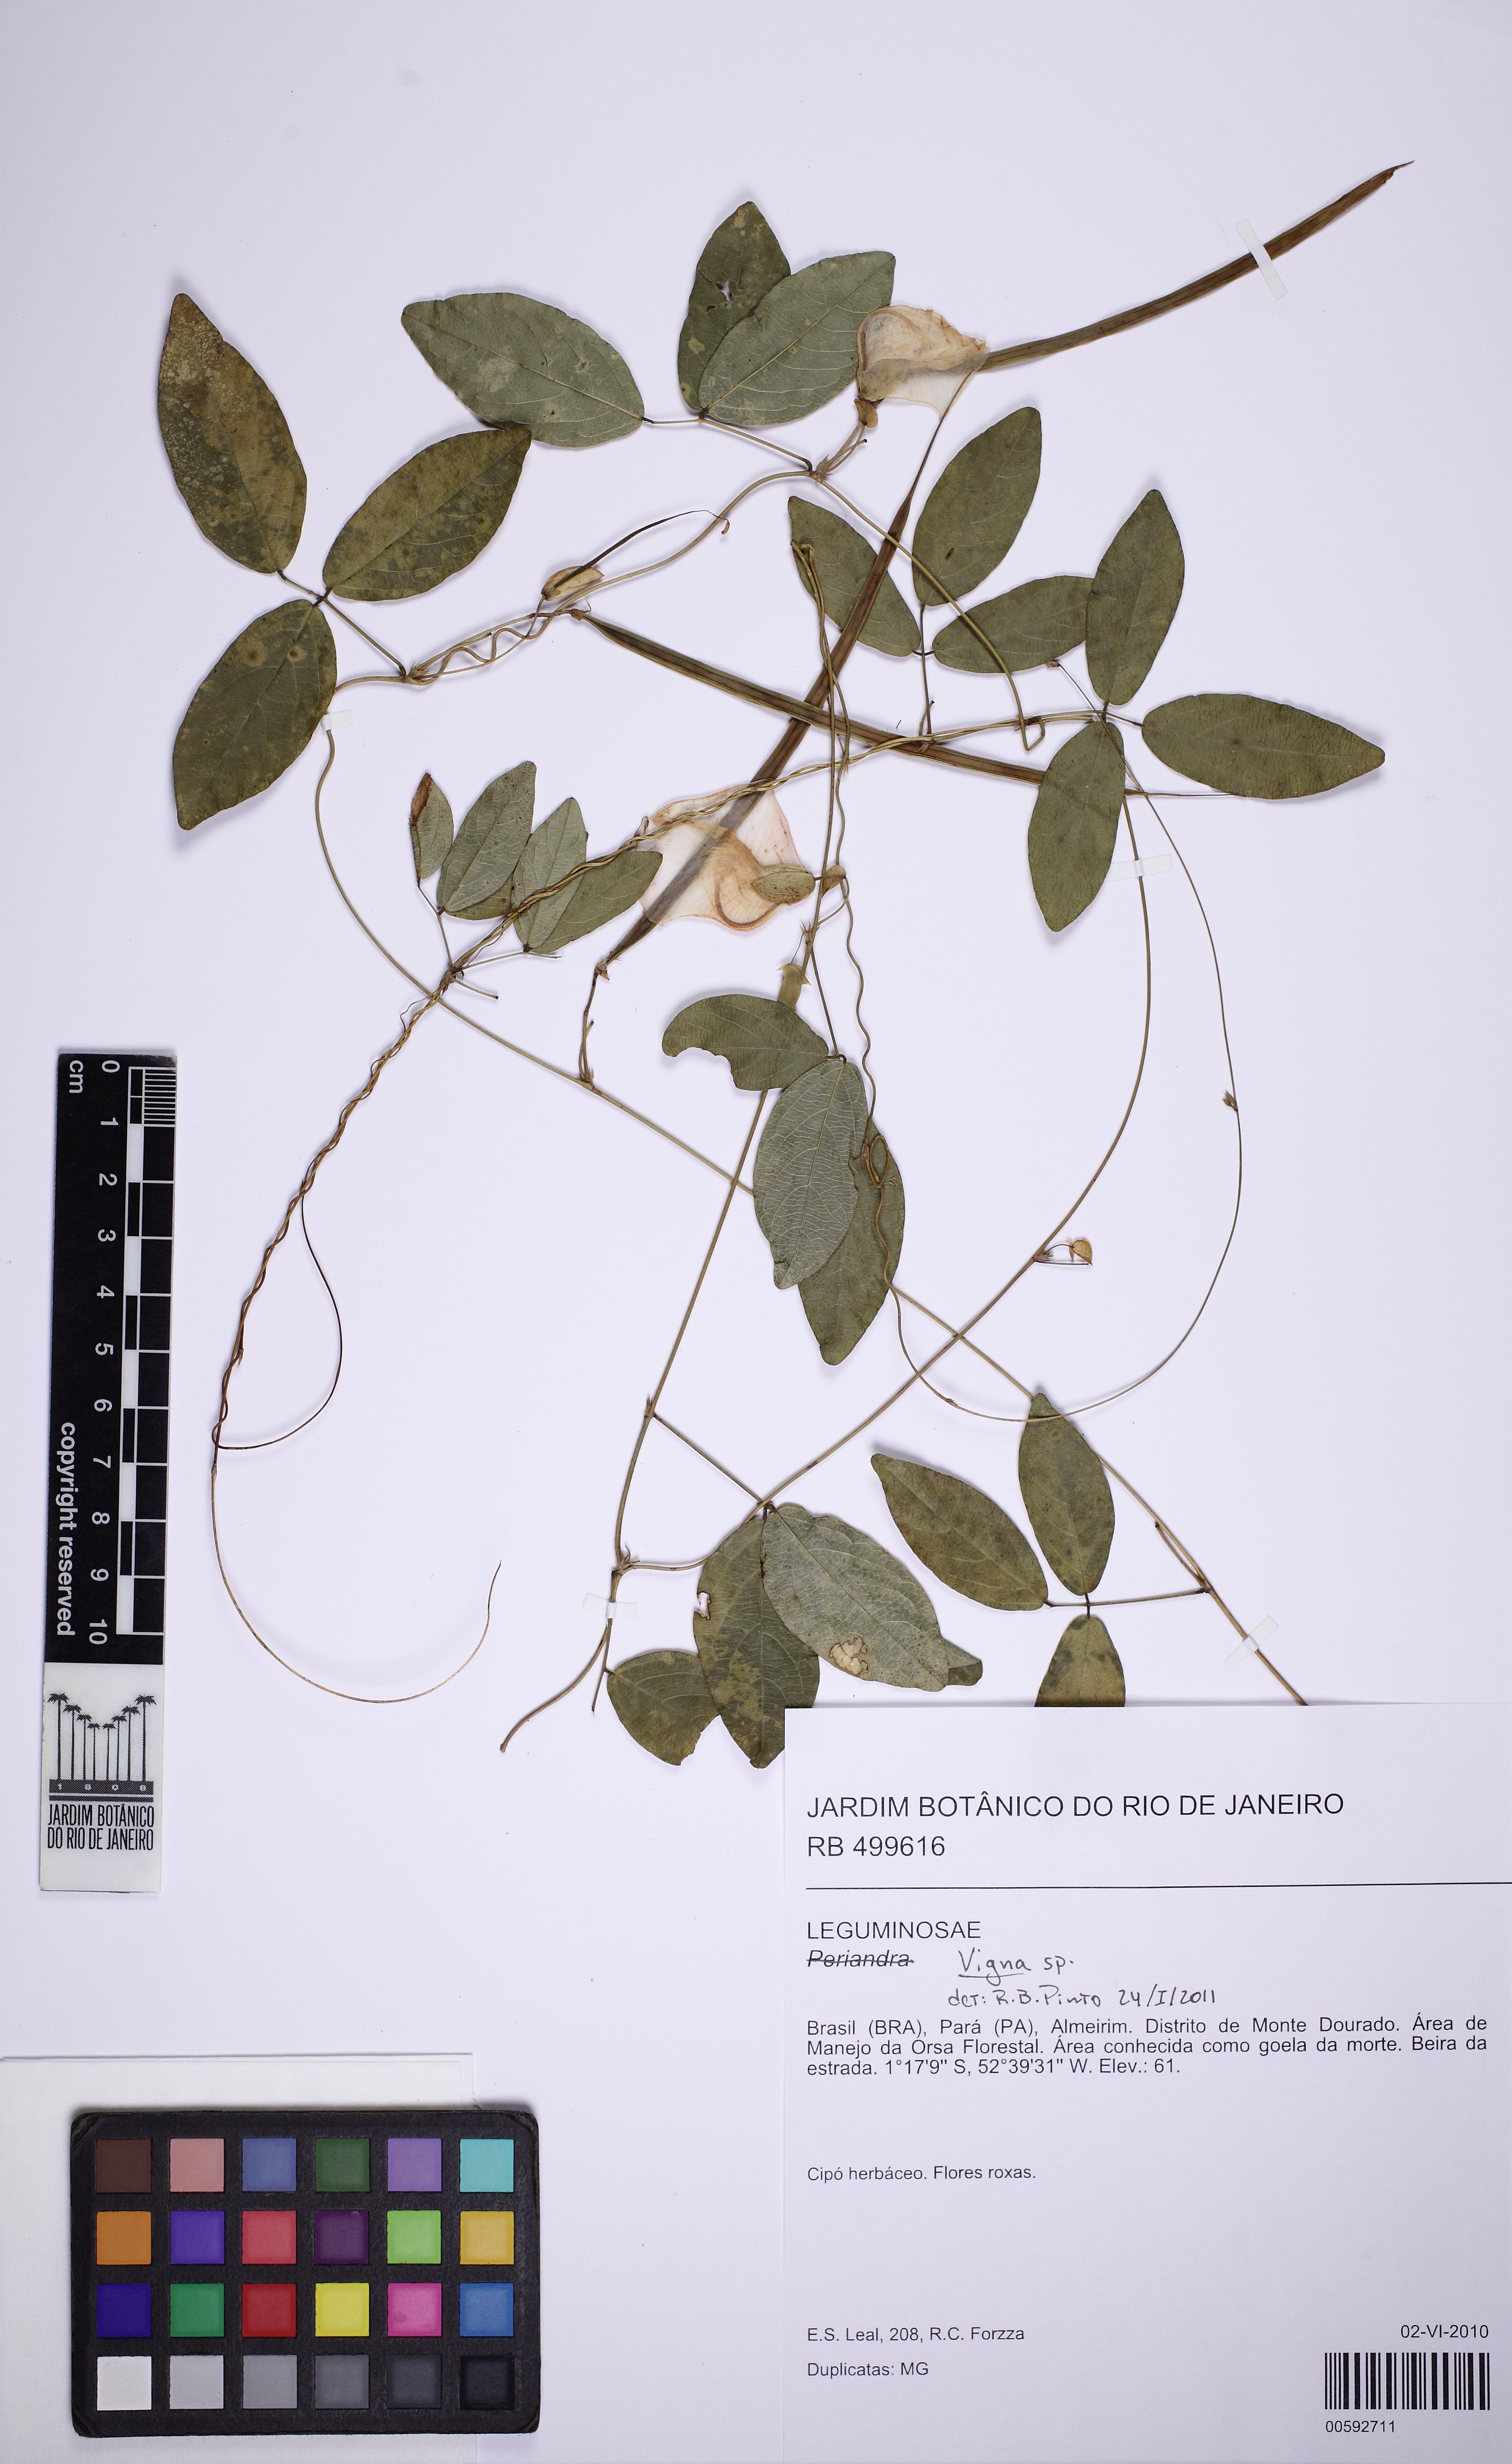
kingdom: Plantae
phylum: Tracheophyta
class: Magnoliopsida
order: Fabales
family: Fabaceae
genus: Centrosema
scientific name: Centrosema
